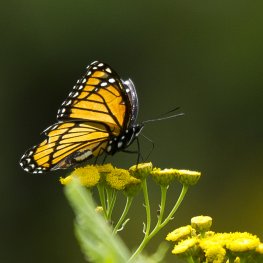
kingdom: Animalia
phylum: Arthropoda
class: Insecta
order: Lepidoptera
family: Nymphalidae
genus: Limenitis
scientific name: Limenitis archippus
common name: Viceroy
